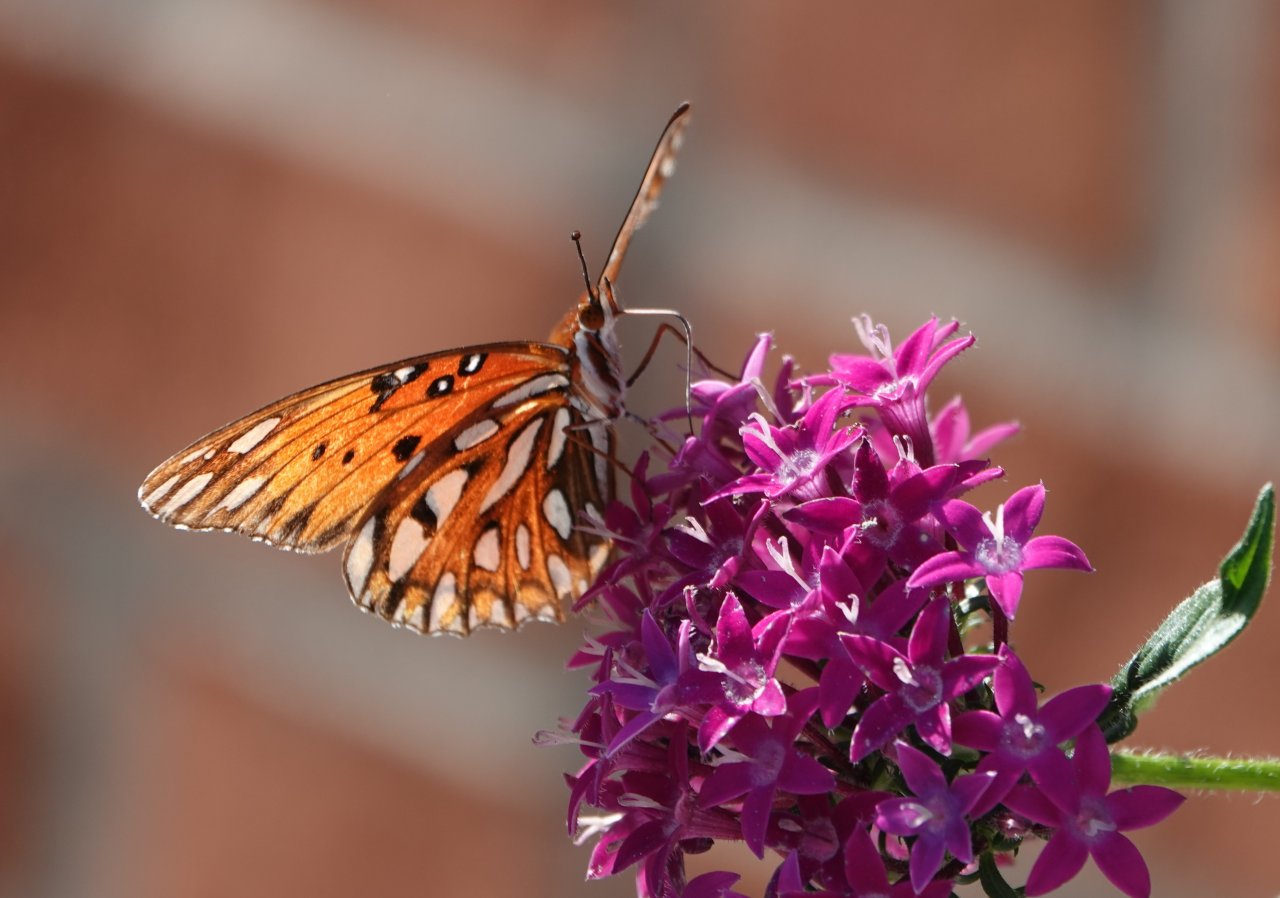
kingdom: Animalia
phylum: Arthropoda
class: Insecta
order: Lepidoptera
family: Nymphalidae
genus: Dione
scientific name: Dione vanillae
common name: Gulf Fritillary
